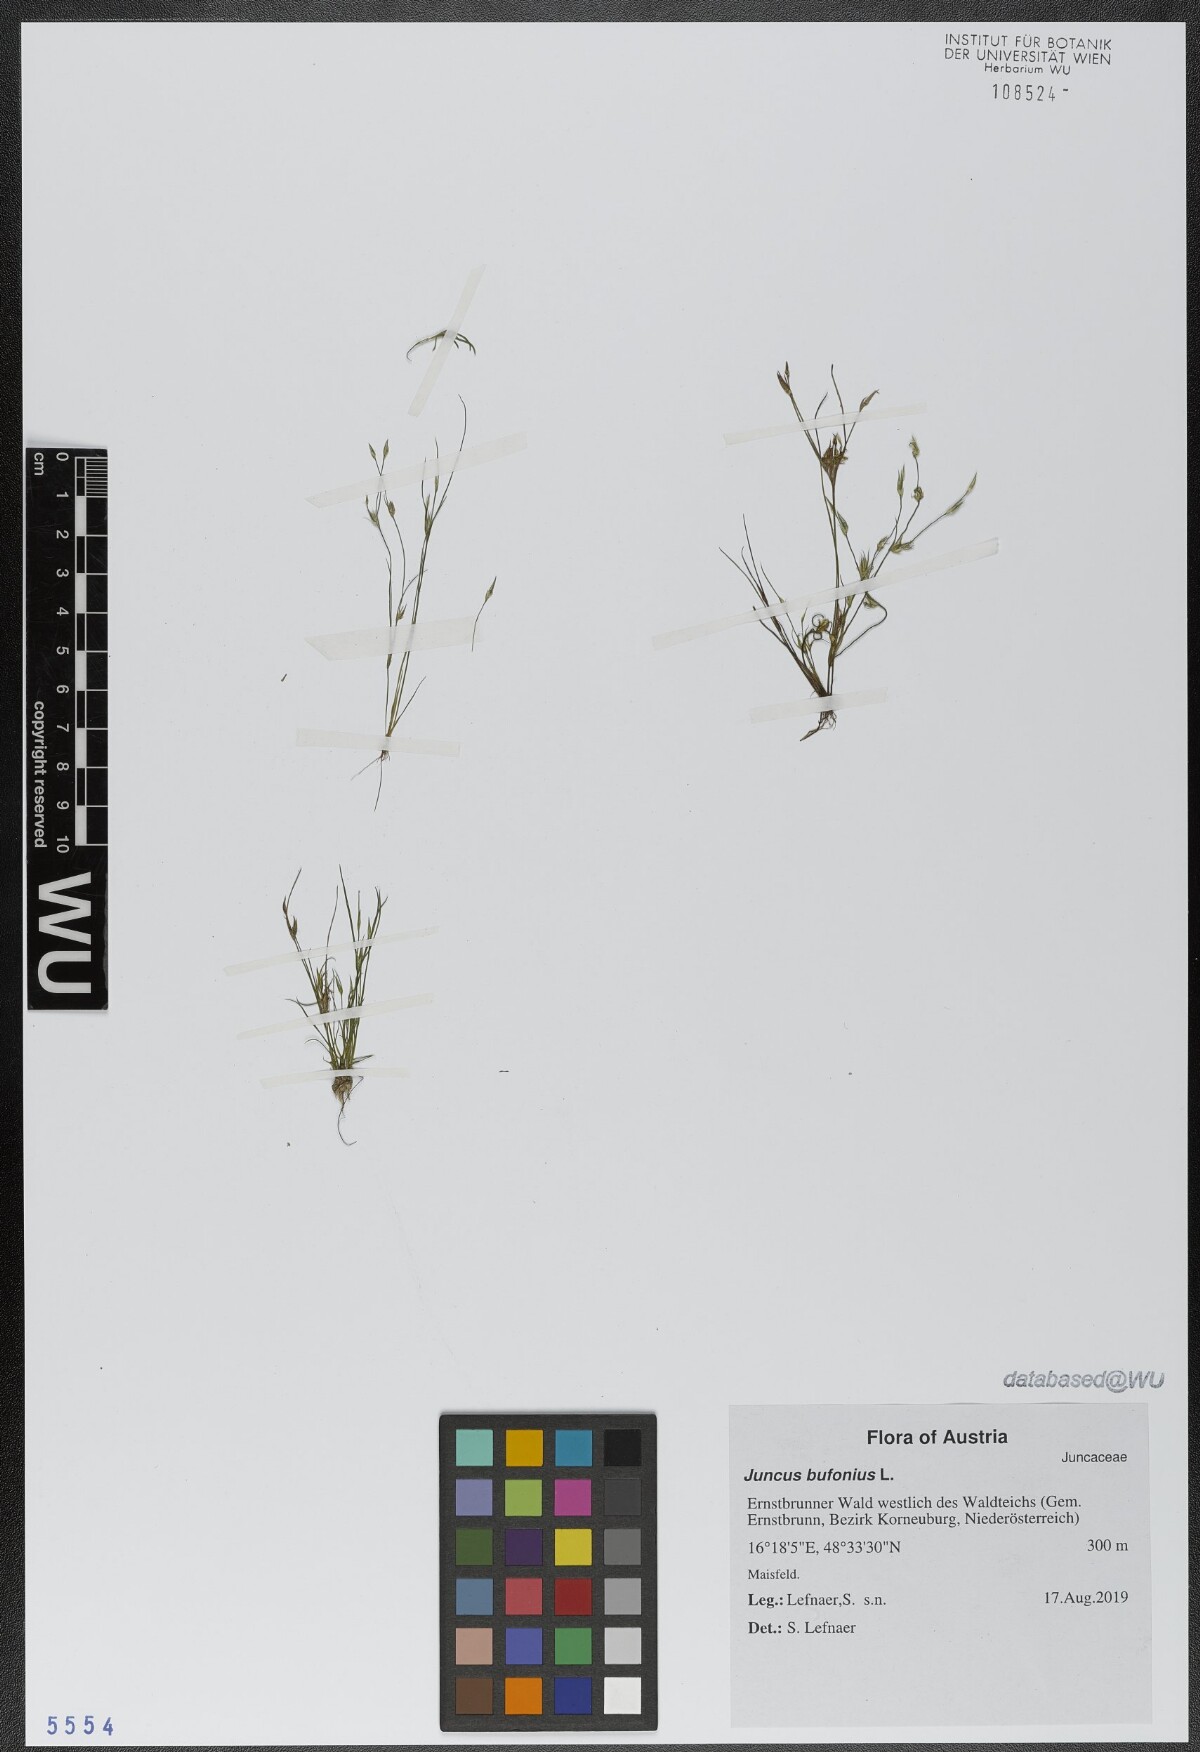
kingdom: Plantae
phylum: Tracheophyta
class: Liliopsida
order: Poales
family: Juncaceae
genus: Juncus
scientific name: Juncus bufonius
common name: Toad rush
